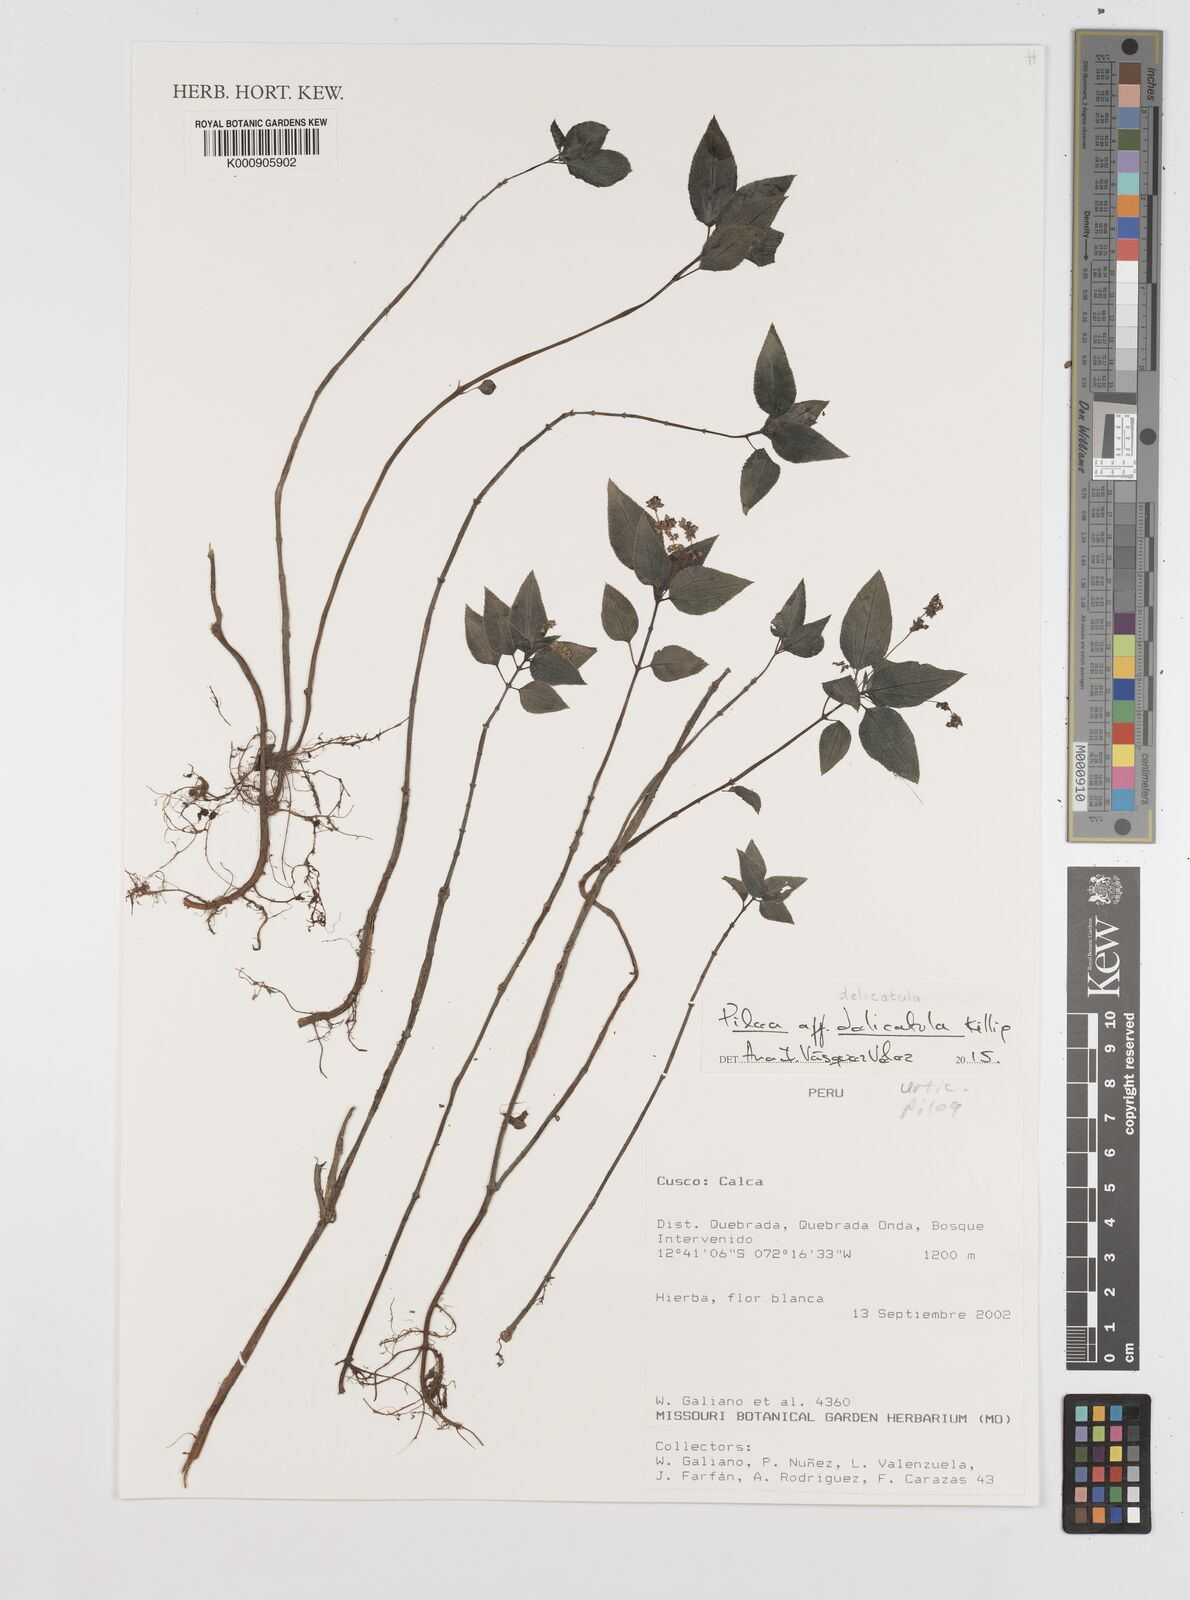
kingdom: Plantae
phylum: Tracheophyta
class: Magnoliopsida
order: Rosales
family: Urticaceae
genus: Pilea
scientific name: Pilea delicatula
